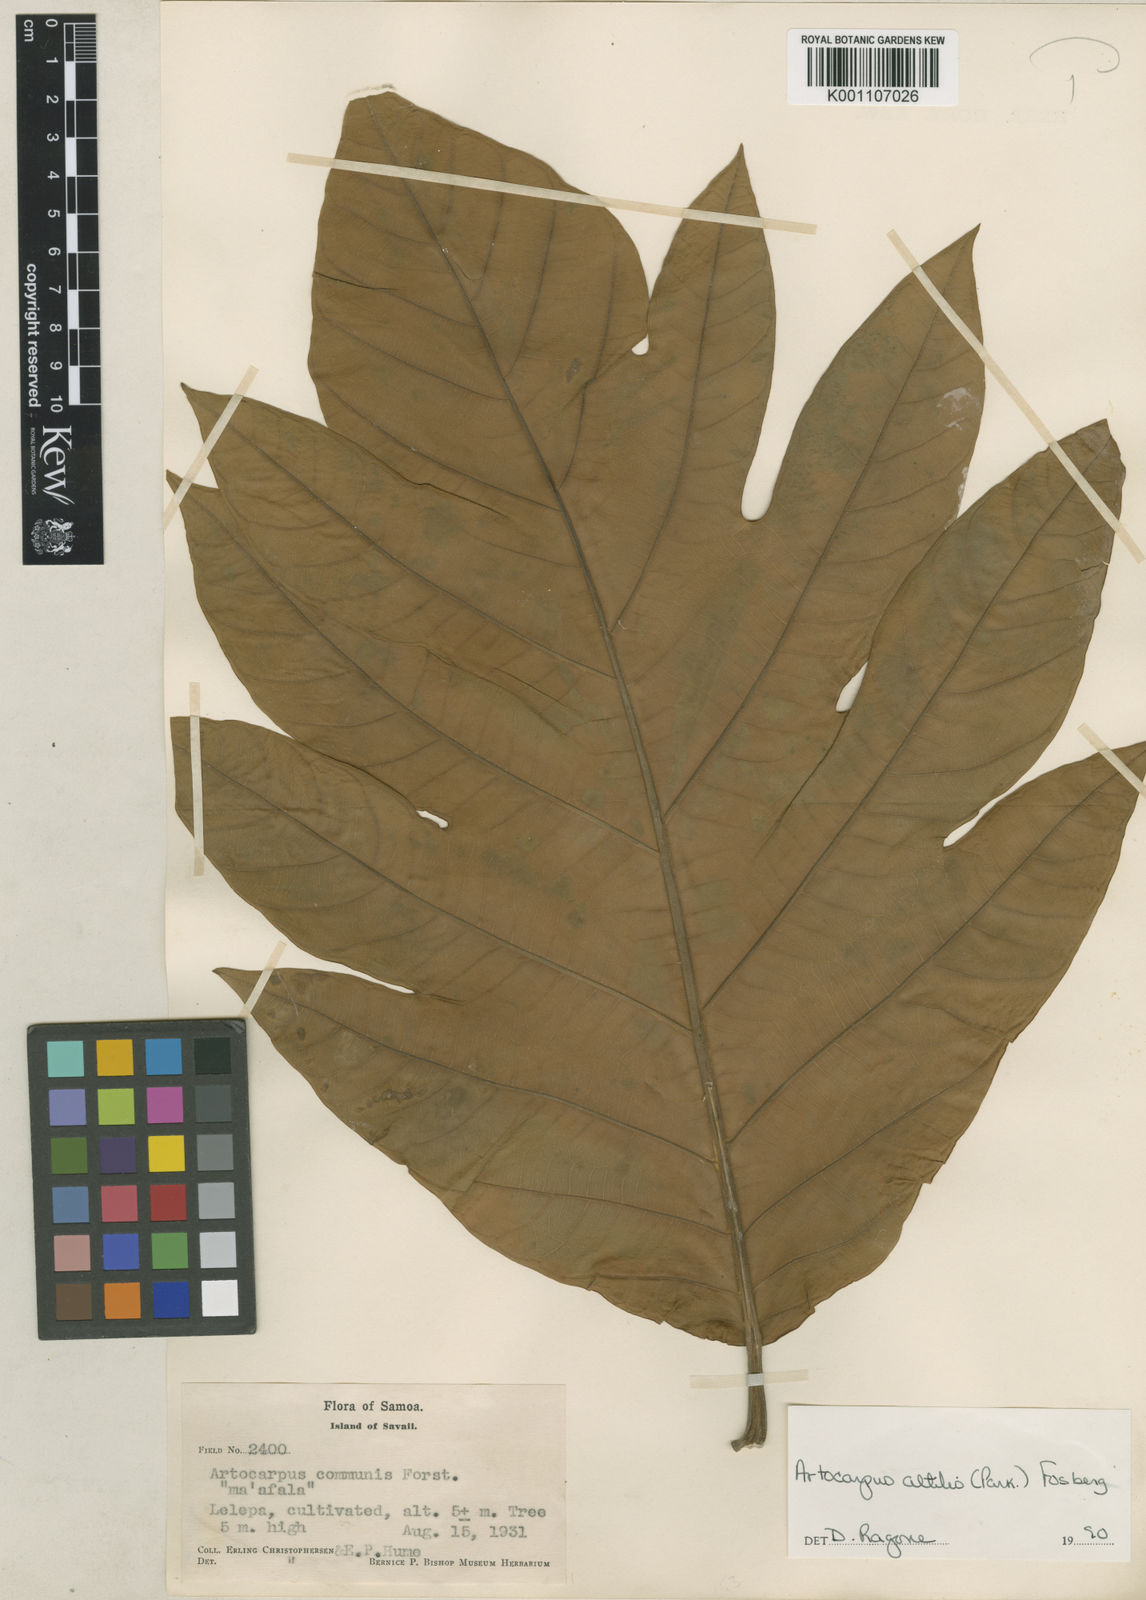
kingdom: Plantae
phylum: Tracheophyta
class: Magnoliopsida
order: Rosales
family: Moraceae
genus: Artocarpus
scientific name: Artocarpus altilis
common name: Breadfruit
